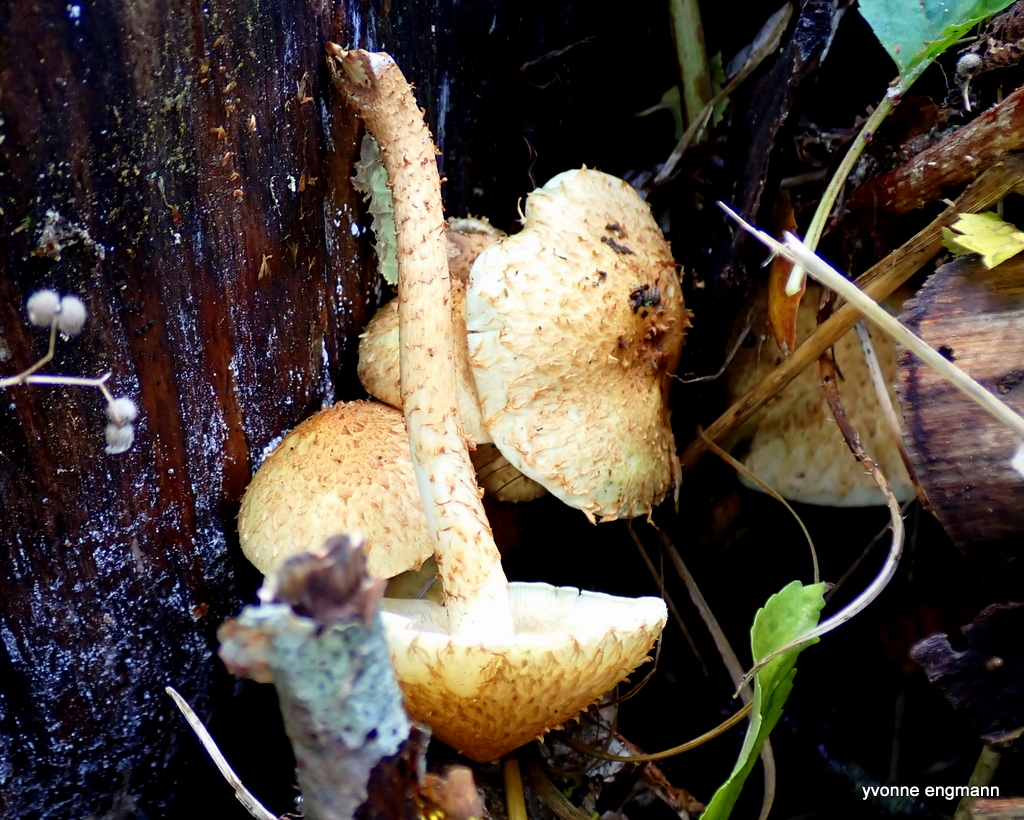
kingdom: Fungi
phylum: Basidiomycota
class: Agaricomycetes
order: Agaricales
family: Strophariaceae
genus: Pholiota
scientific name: Pholiota squarrosa
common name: krumskællet skælhat
